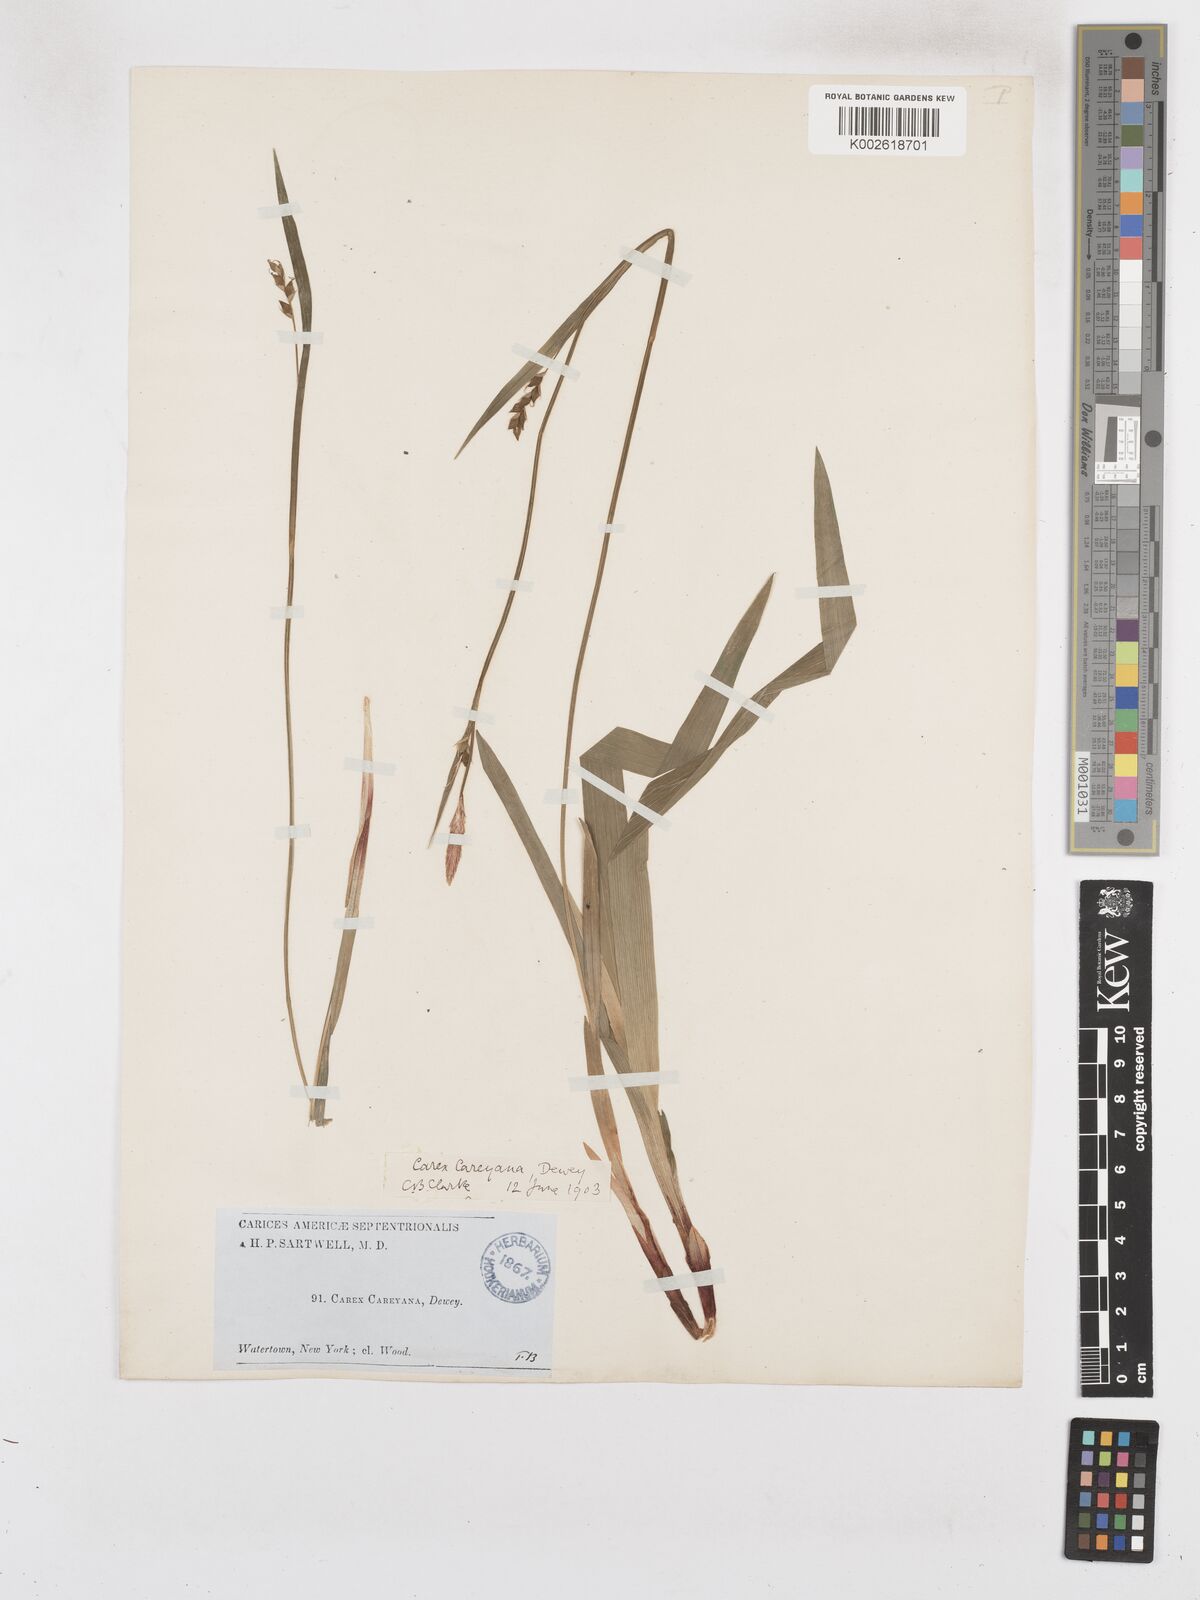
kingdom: Plantae
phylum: Tracheophyta
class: Liliopsida
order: Poales
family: Cyperaceae
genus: Carex
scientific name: Carex careyana
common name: Carey's sedge
